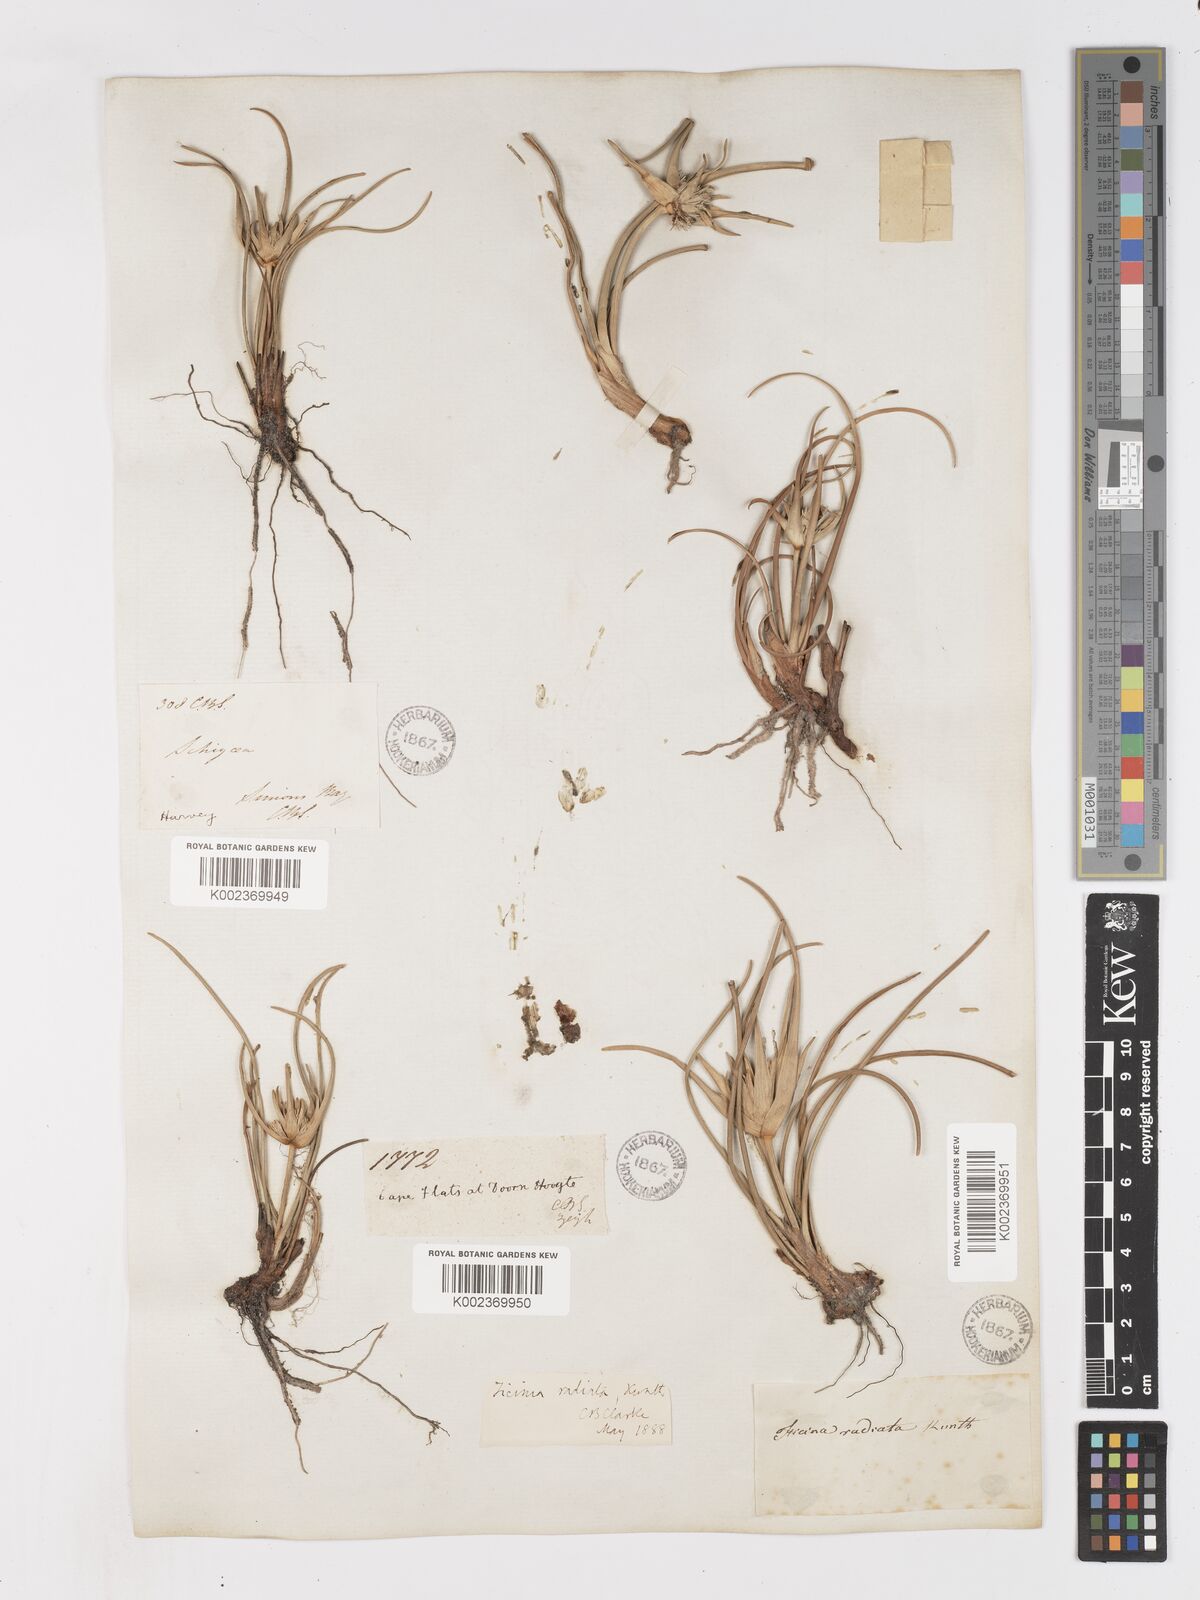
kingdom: Plantae
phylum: Tracheophyta
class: Liliopsida
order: Poales
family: Cyperaceae
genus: Ficinia
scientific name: Ficinia radiata
